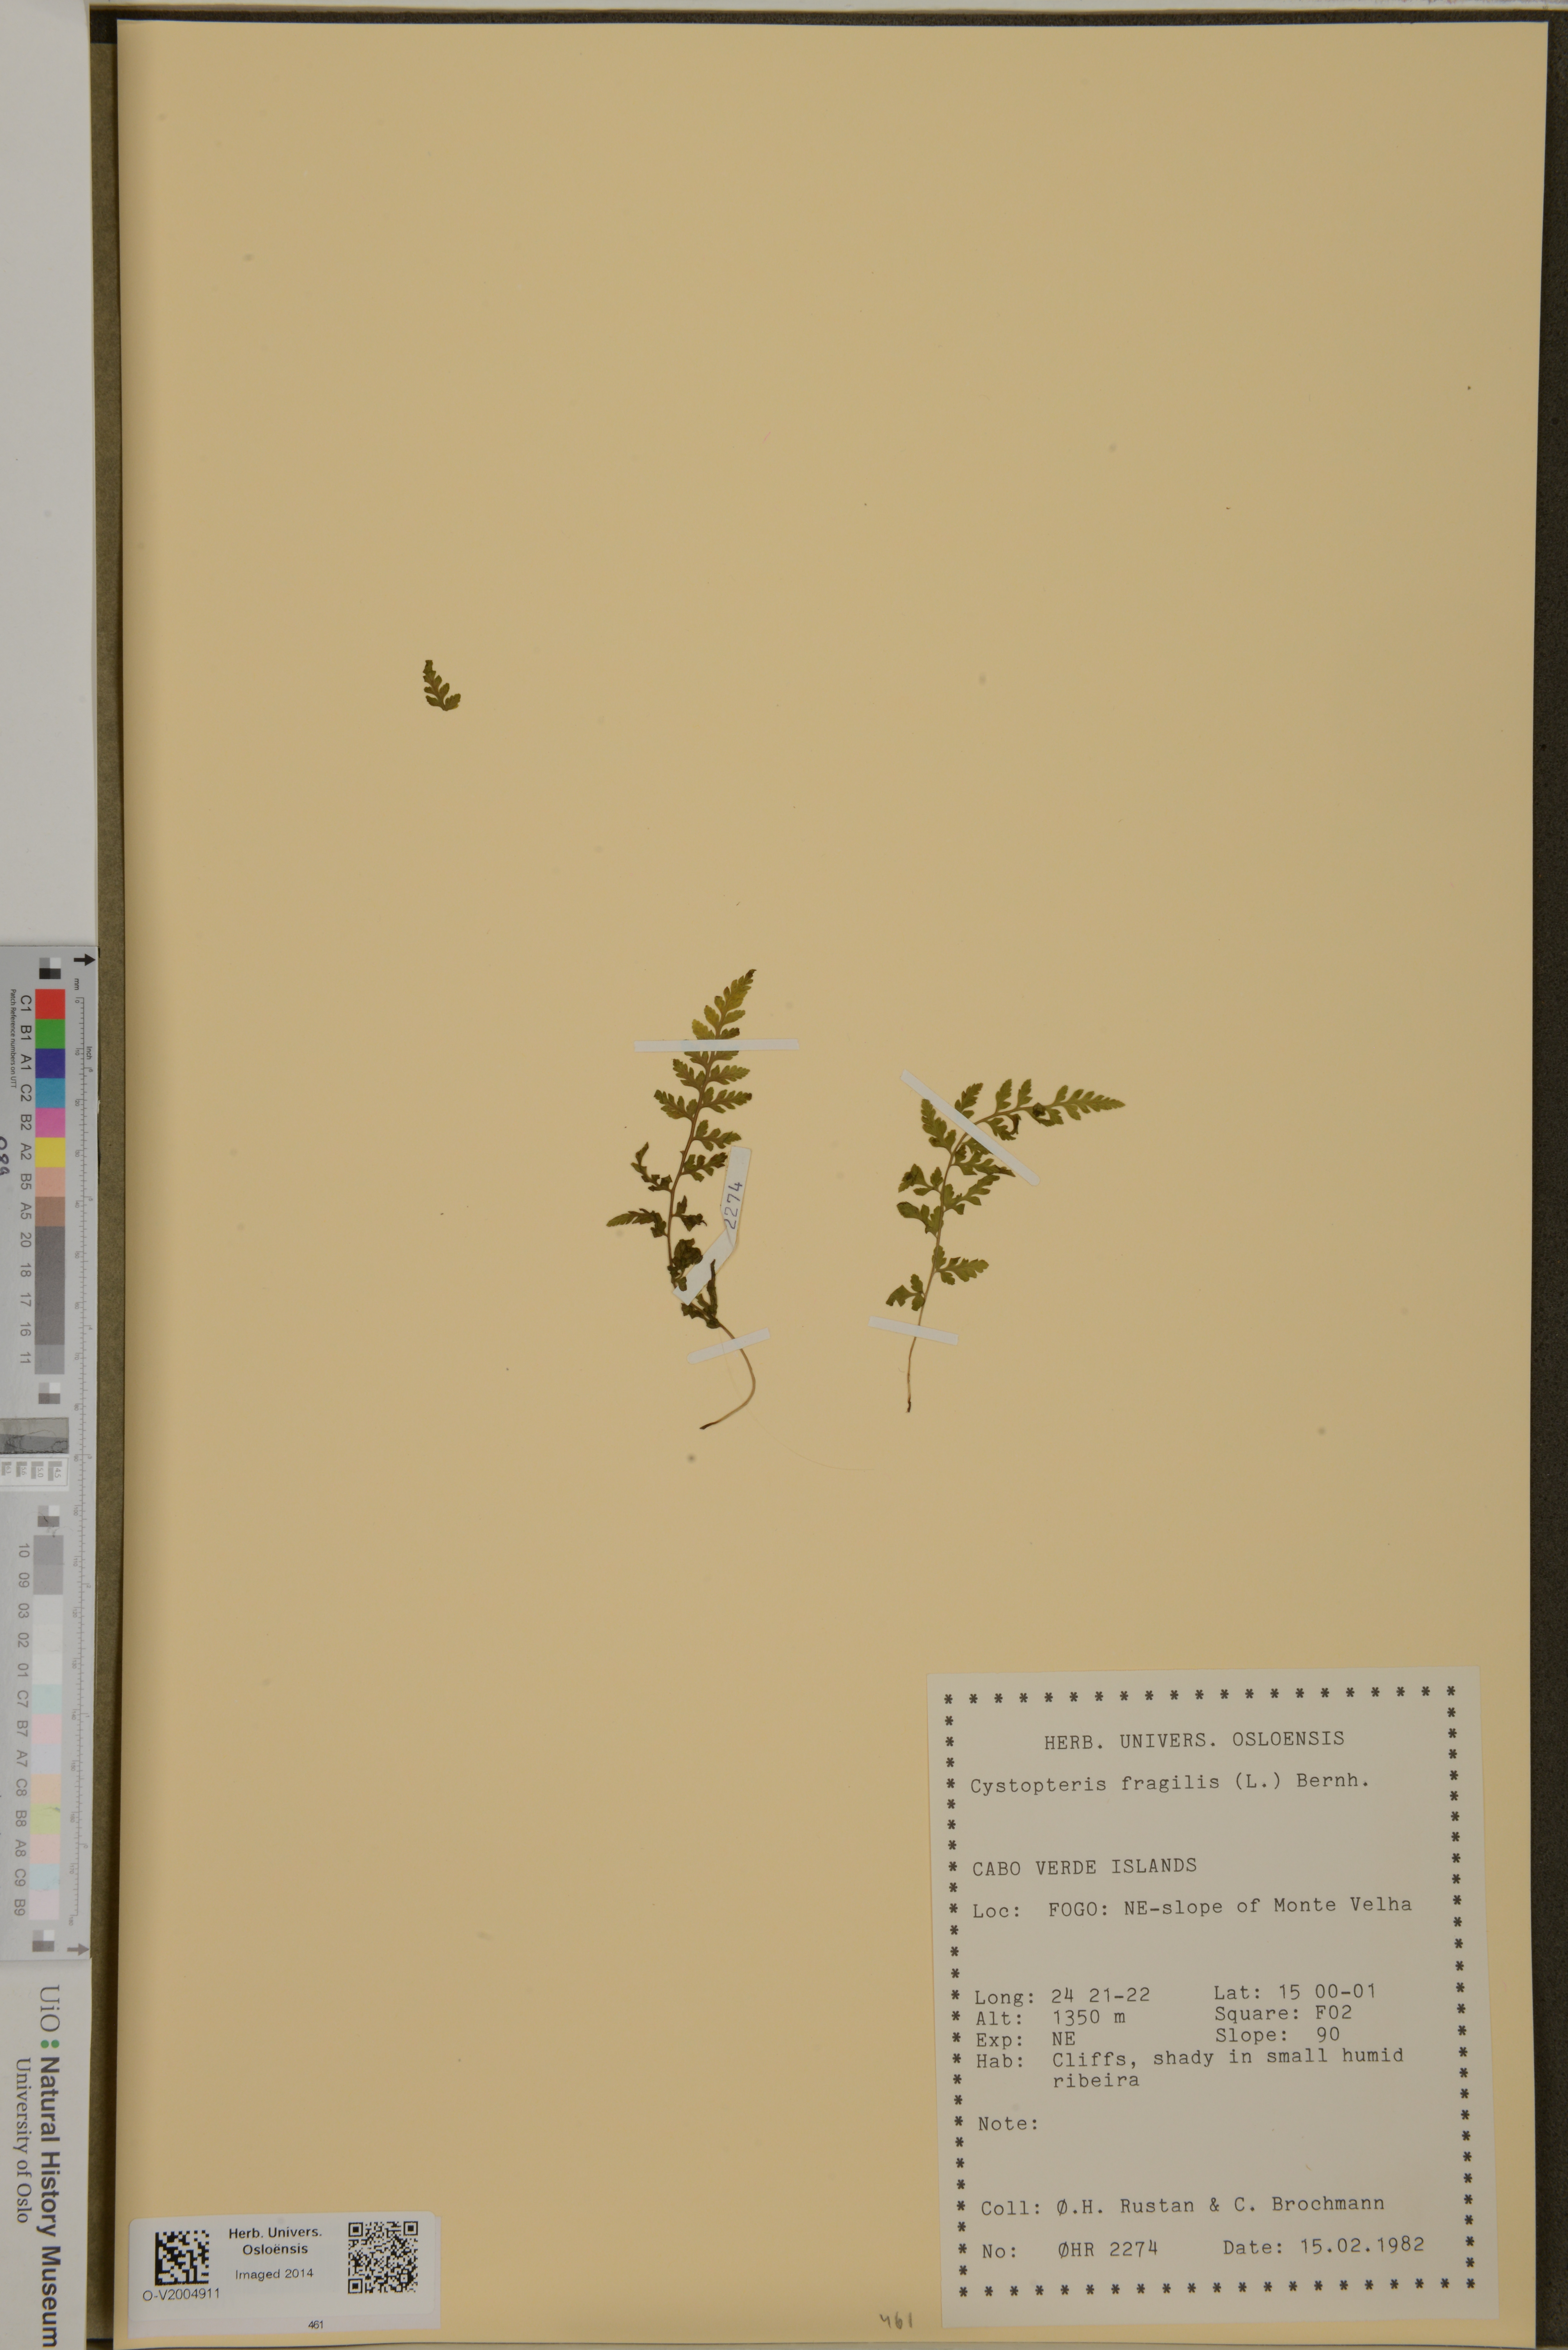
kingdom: Plantae
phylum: Tracheophyta
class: Polypodiopsida
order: Polypodiales
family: Cystopteridaceae
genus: Cystopteris
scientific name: Cystopteris fragilis
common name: Brittle bladder fern
